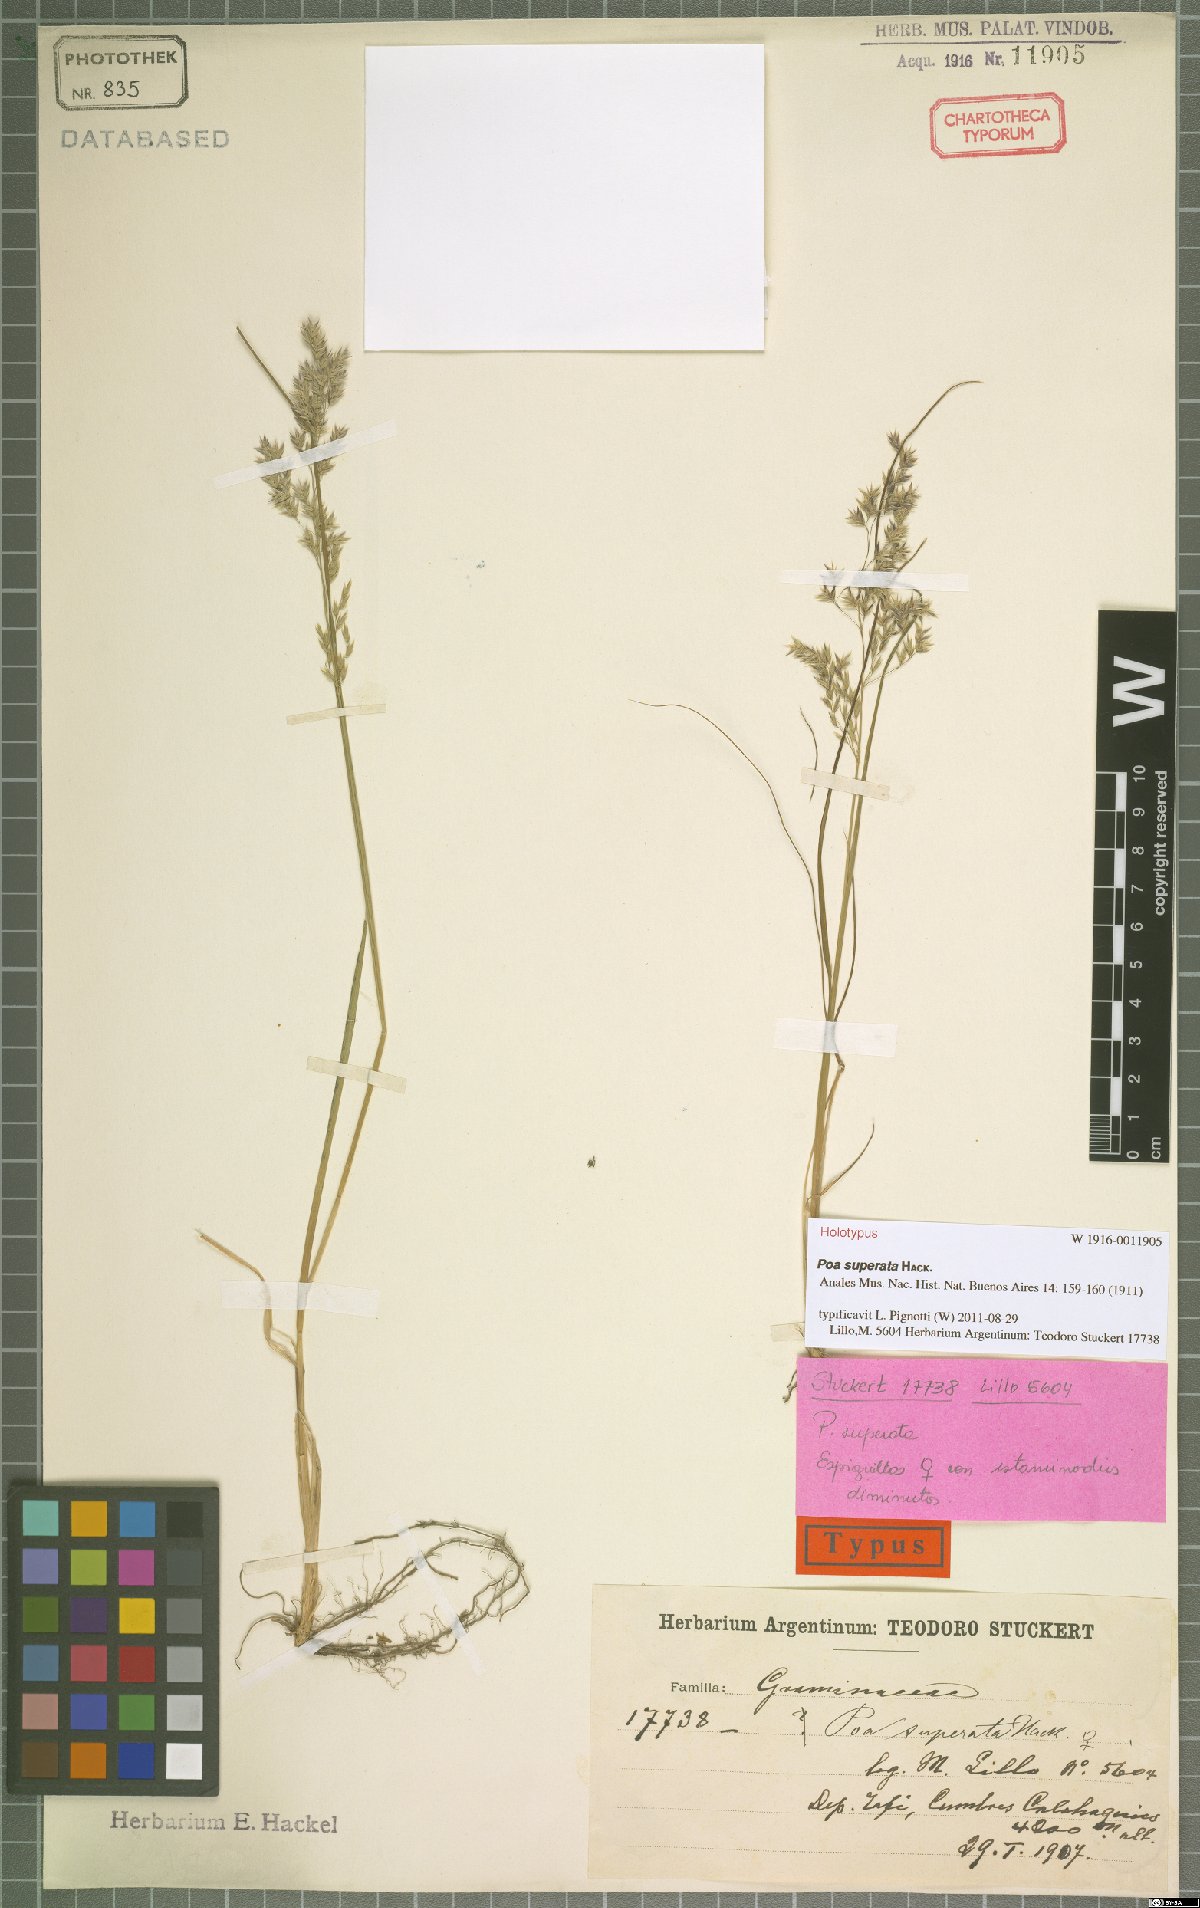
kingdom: Plantae
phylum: Tracheophyta
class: Liliopsida
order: Poales
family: Poaceae
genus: Poa
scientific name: Poa grisebachii
